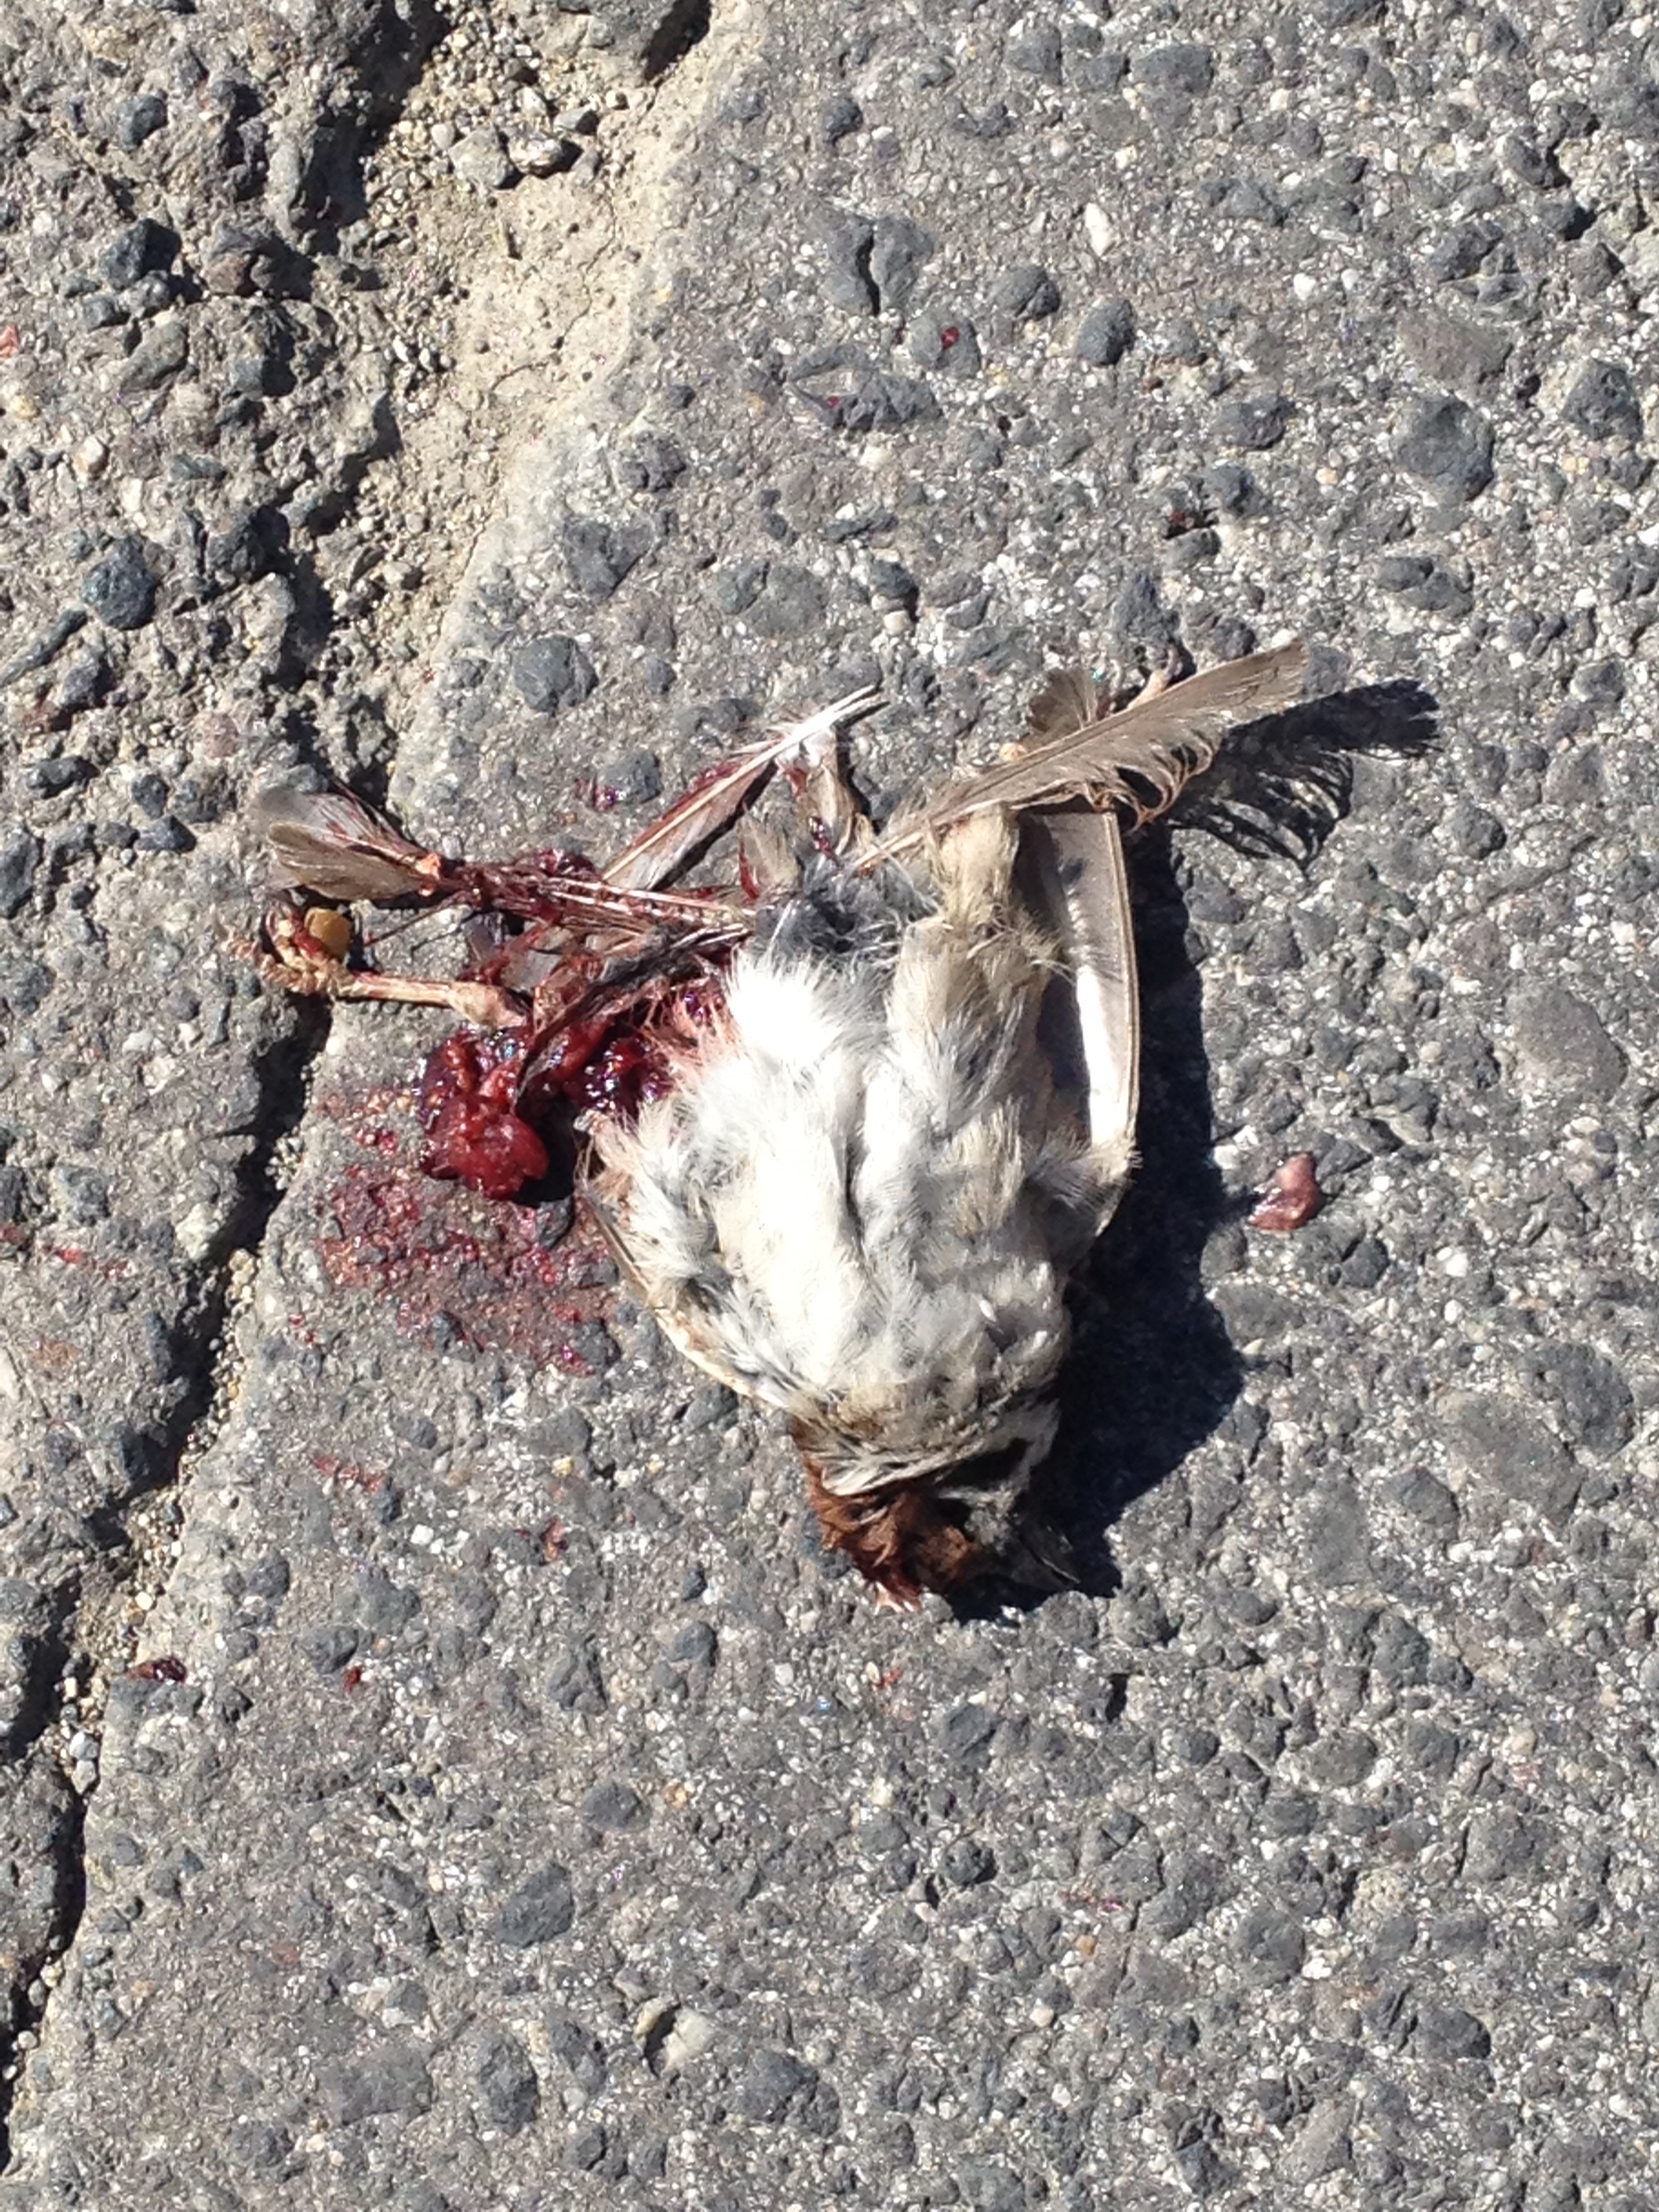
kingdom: Animalia
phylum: Chordata
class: Aves
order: Passeriformes
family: Passeridae
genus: Passer
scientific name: Passer montanus
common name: Eurasian tree sparrow
